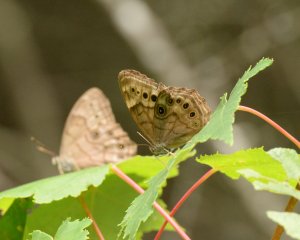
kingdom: Animalia
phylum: Arthropoda
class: Insecta
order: Lepidoptera
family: Nymphalidae
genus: Lethe
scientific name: Lethe anthedon
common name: Northern Pearly-Eye
